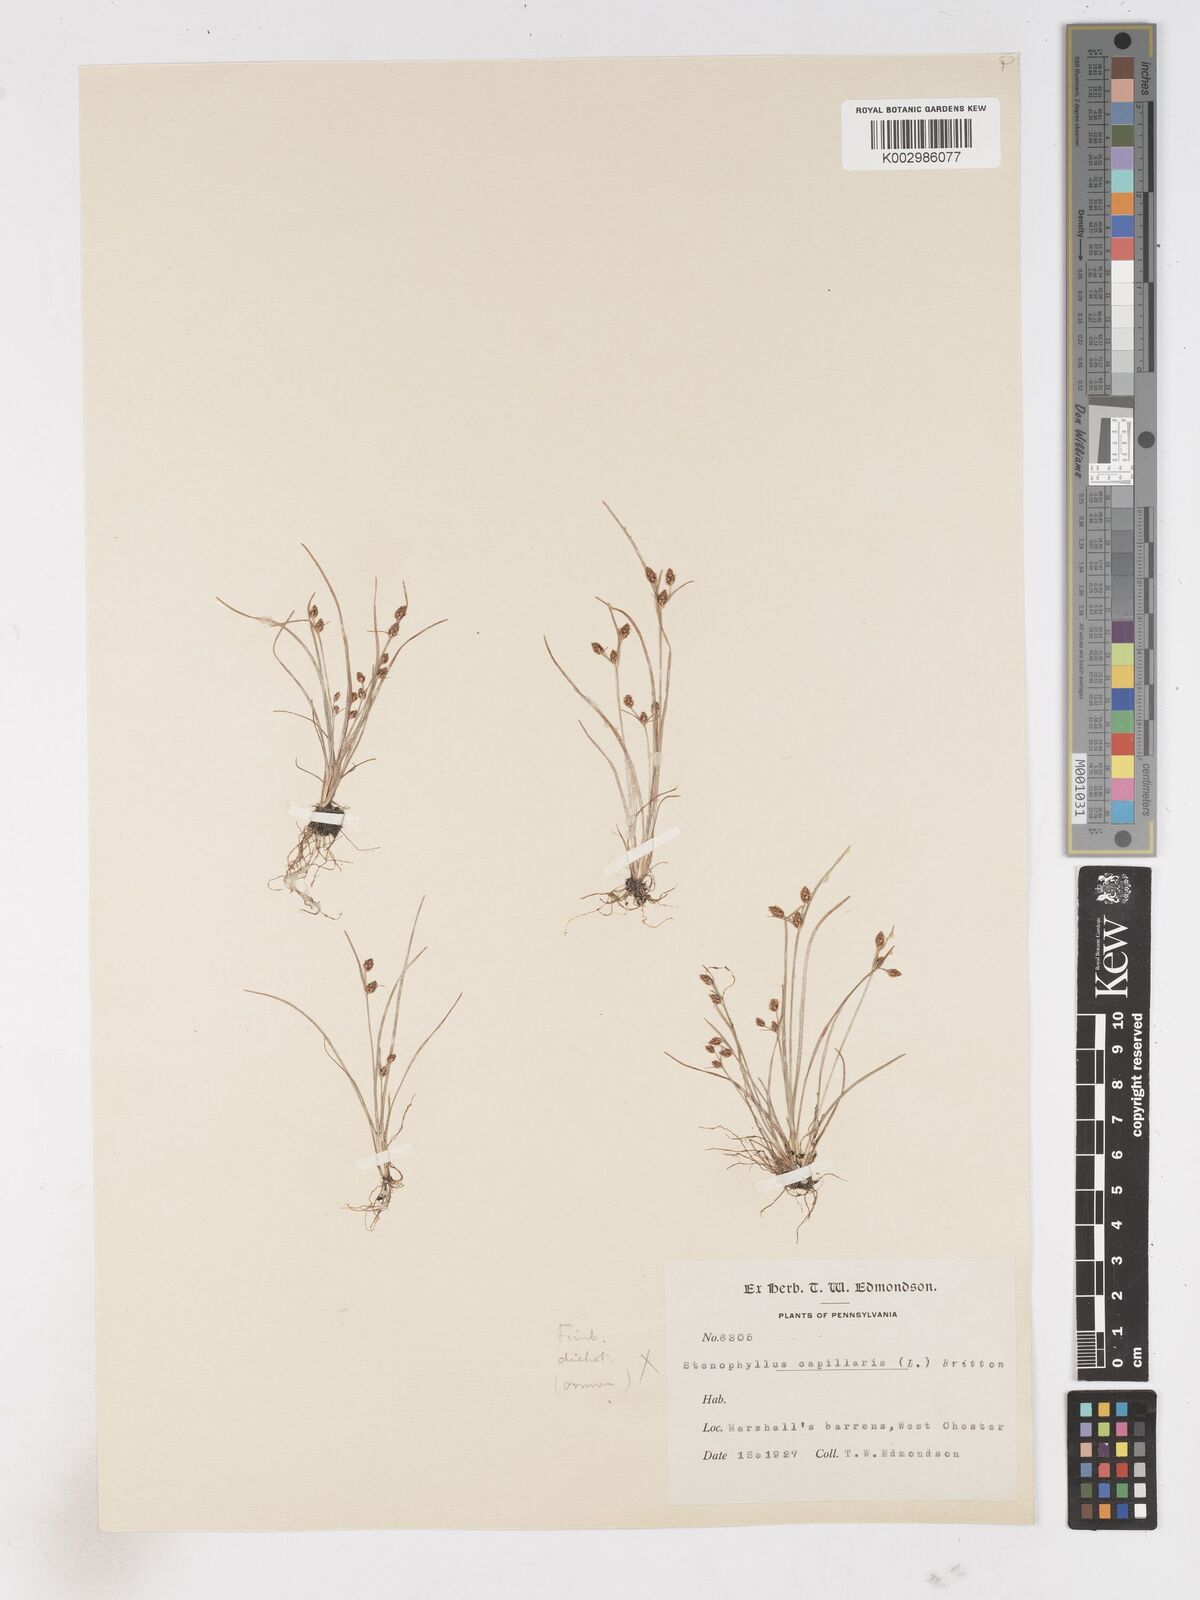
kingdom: Plantae
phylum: Tracheophyta
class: Liliopsida
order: Poales
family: Cyperaceae
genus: Fimbristylis
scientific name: Fimbristylis dichotoma
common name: Forked fimbry
